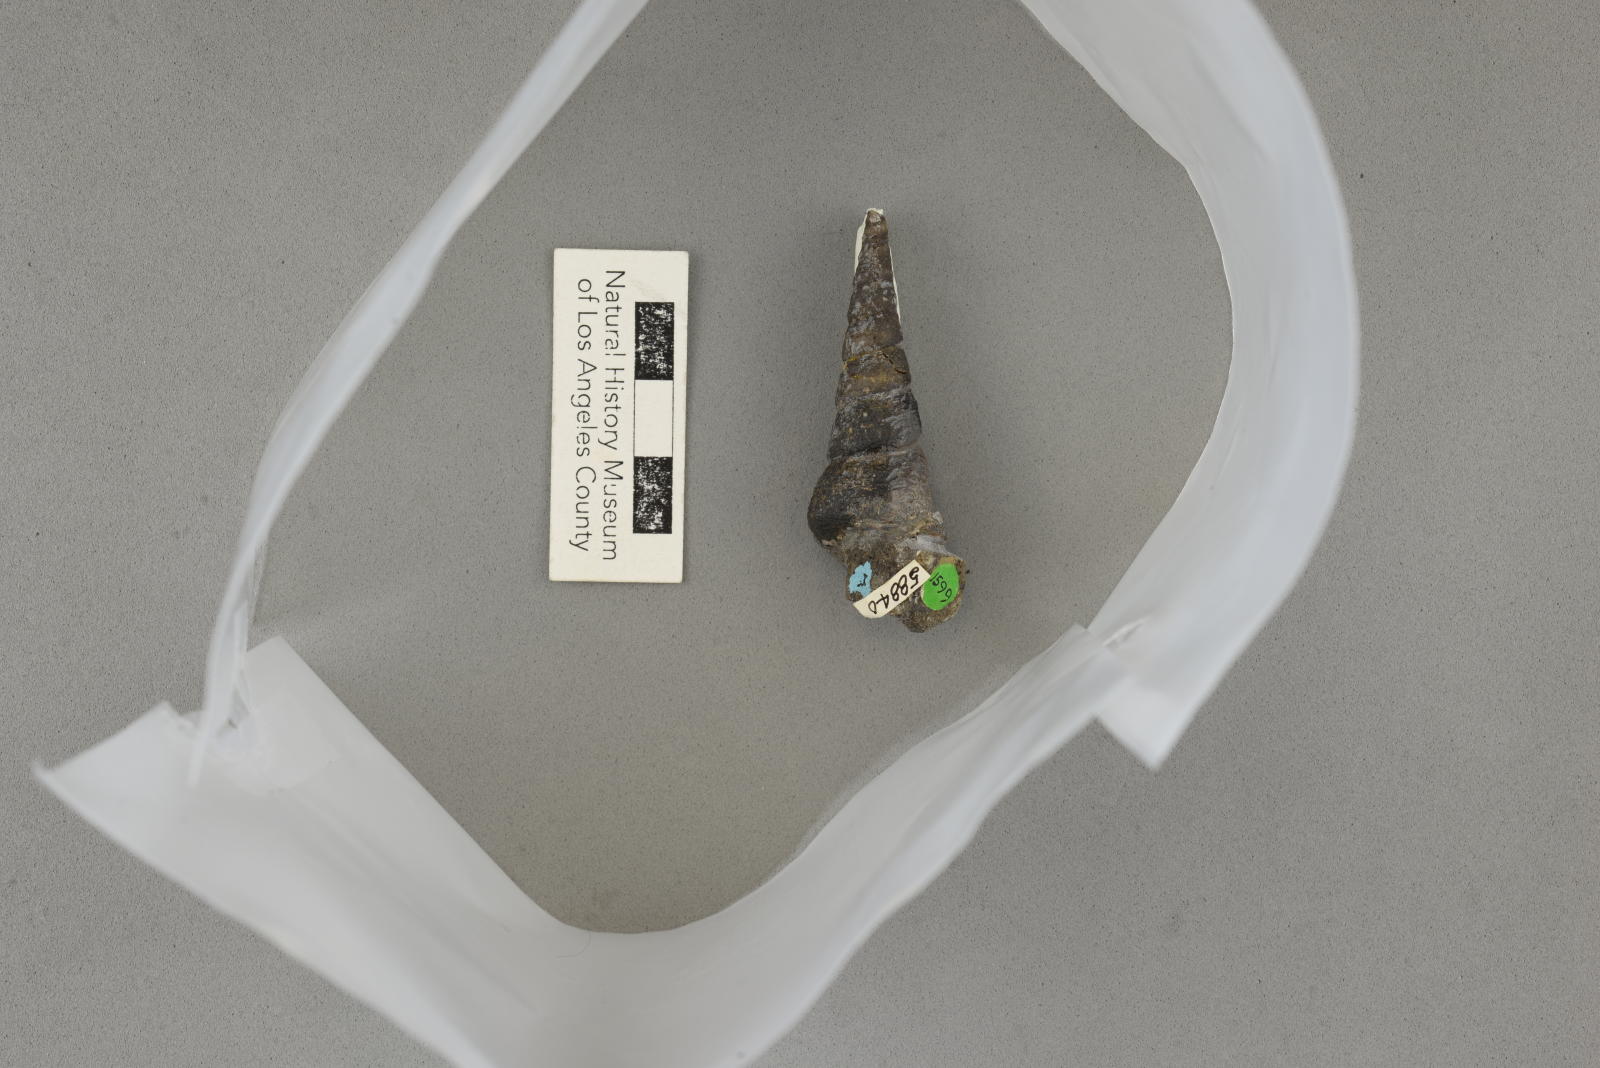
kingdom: Animalia
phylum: Mollusca
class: Gastropoda
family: Turritellidae
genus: Turritella
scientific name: Turritella chaneyi
